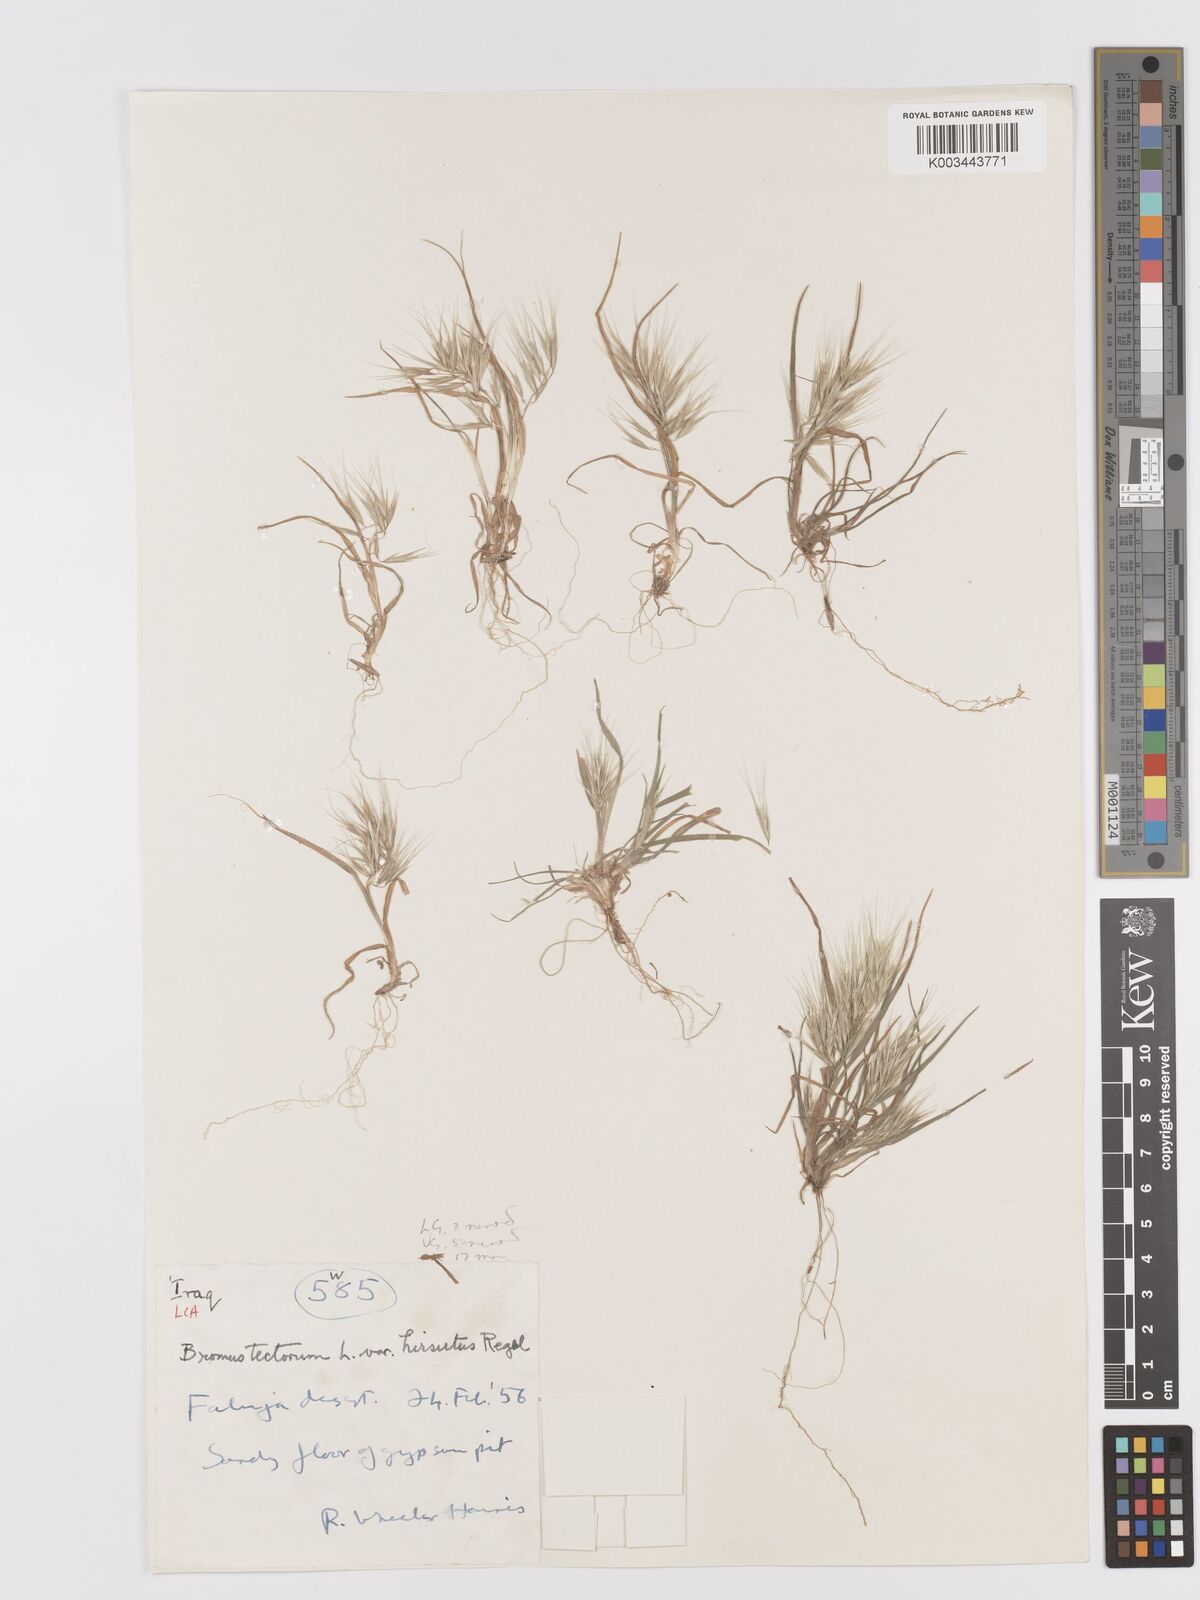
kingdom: Plantae
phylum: Tracheophyta
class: Liliopsida
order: Poales
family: Poaceae
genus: Bromus
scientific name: Bromus tectorum
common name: Cheatgrass
